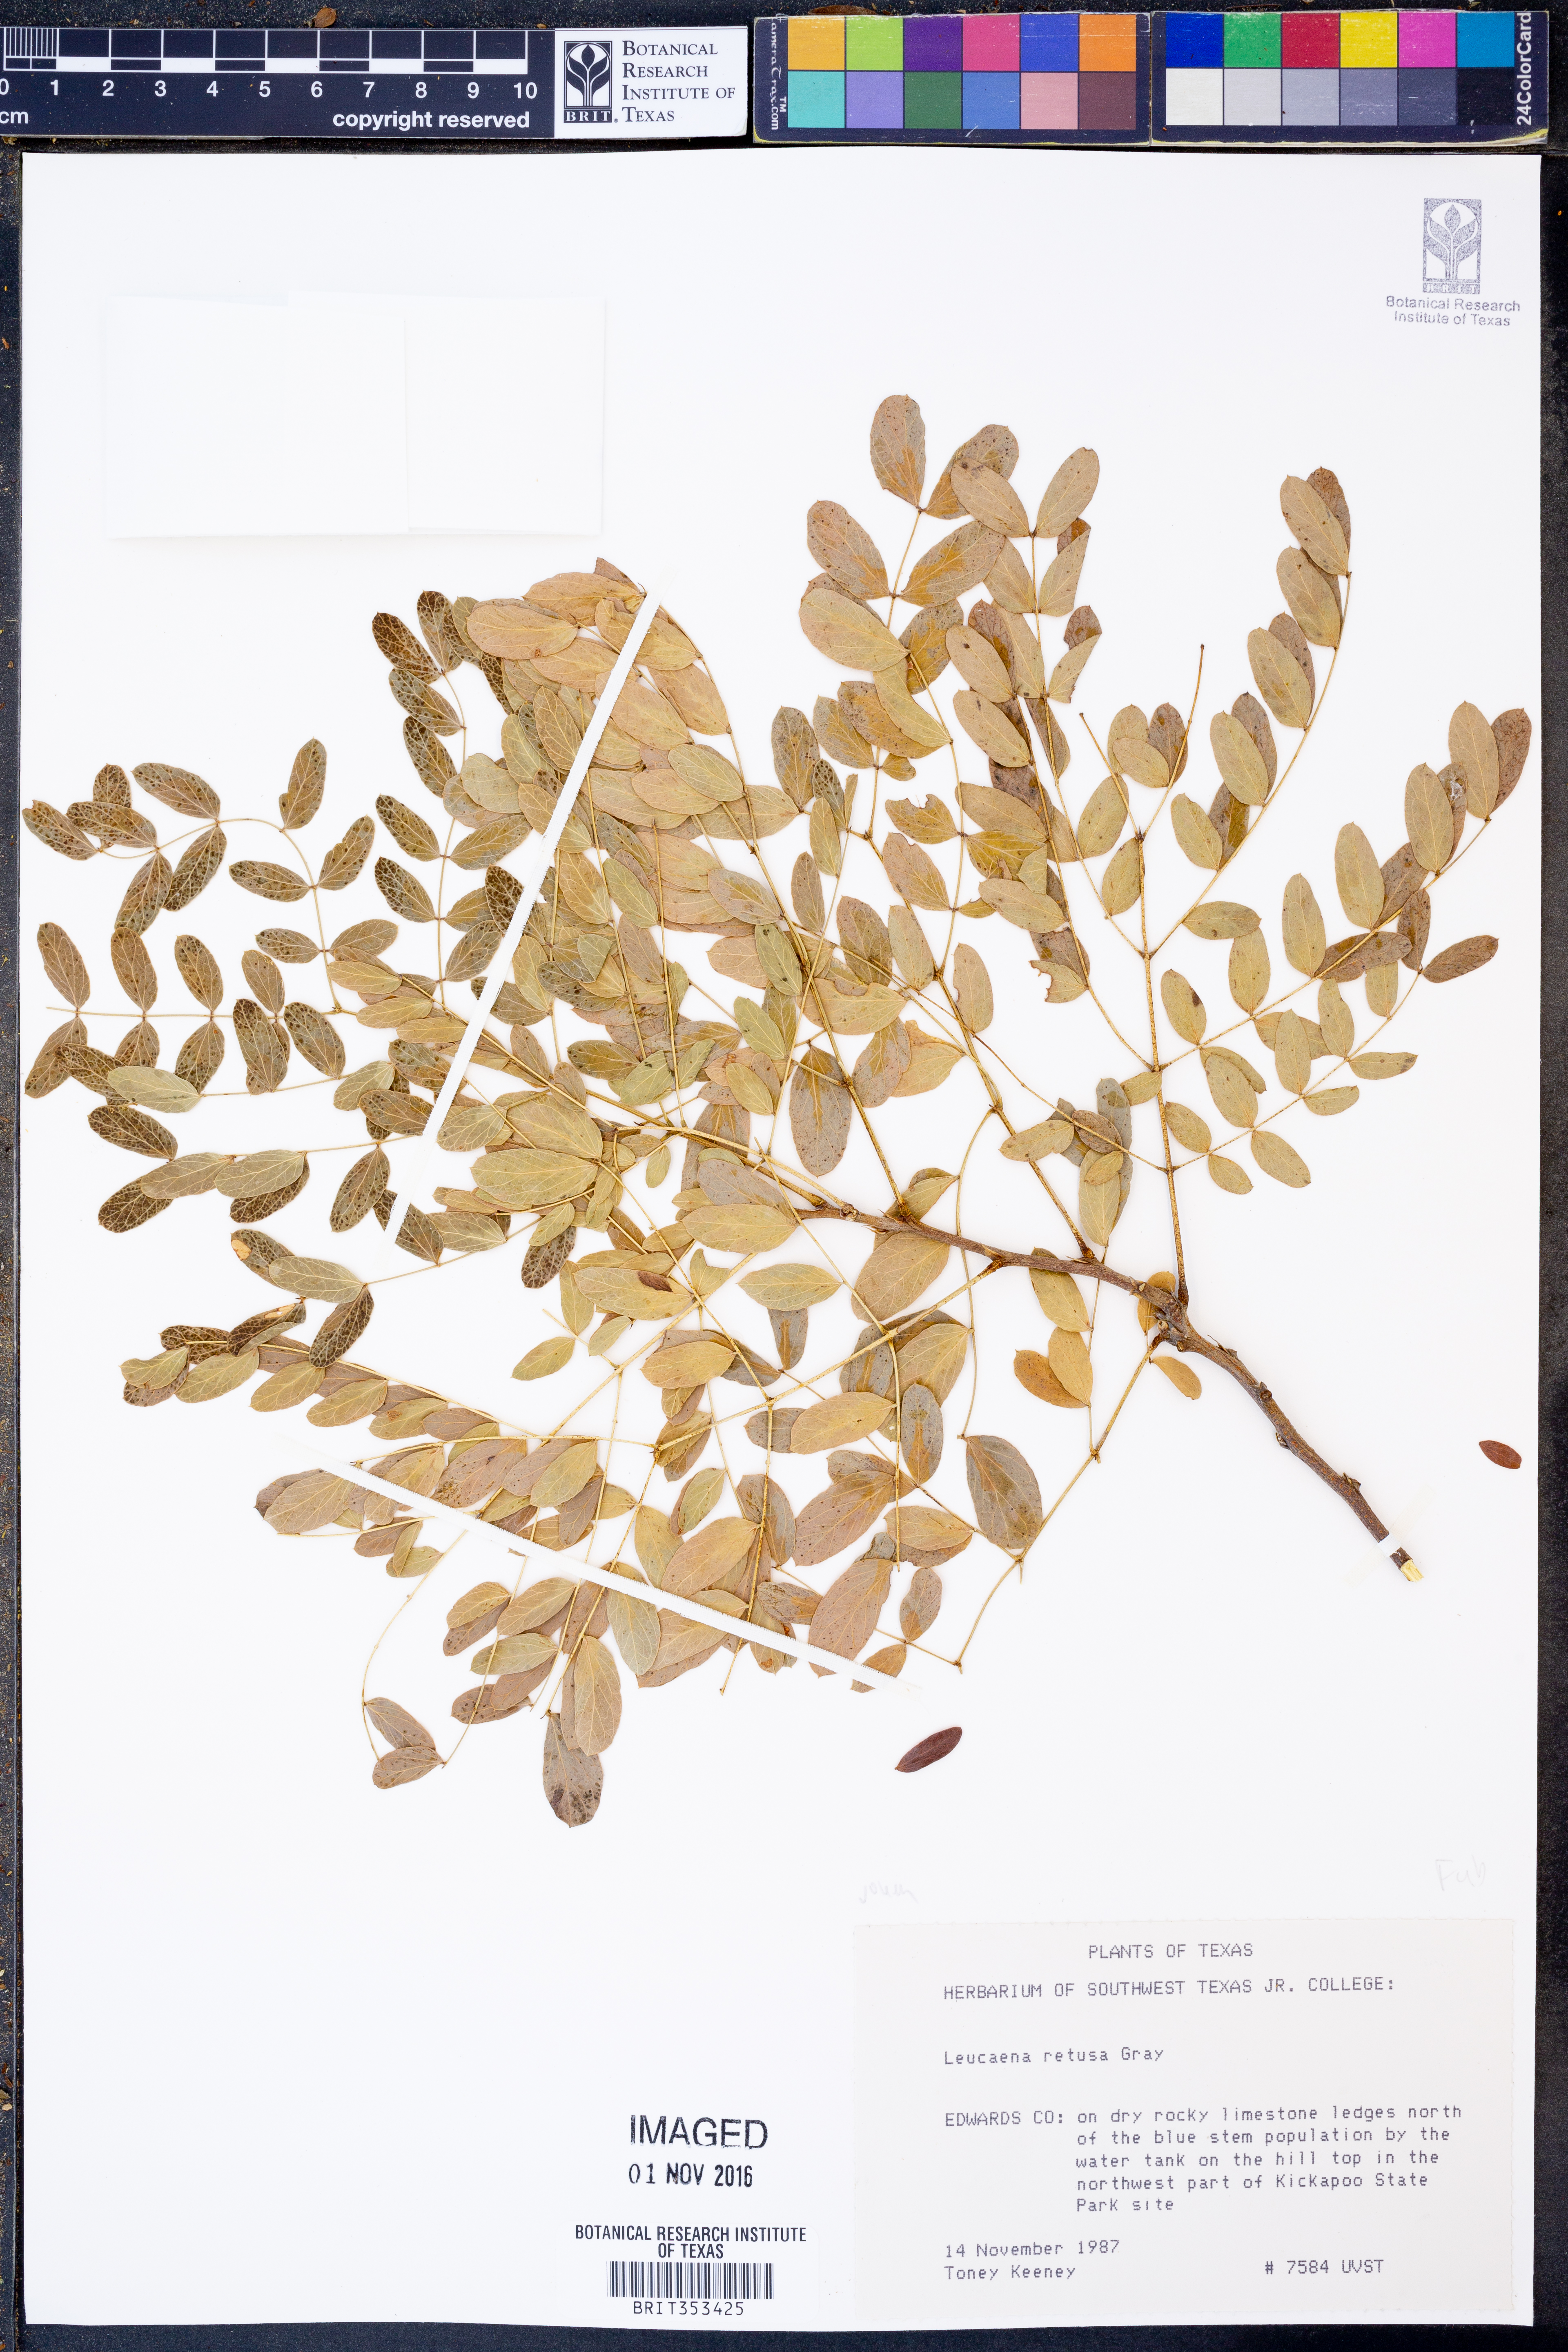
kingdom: Plantae
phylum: Tracheophyta
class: Magnoliopsida
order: Fabales
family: Fabaceae
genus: Leucaena
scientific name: Leucaena retusa
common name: Littleleaf leadtree
